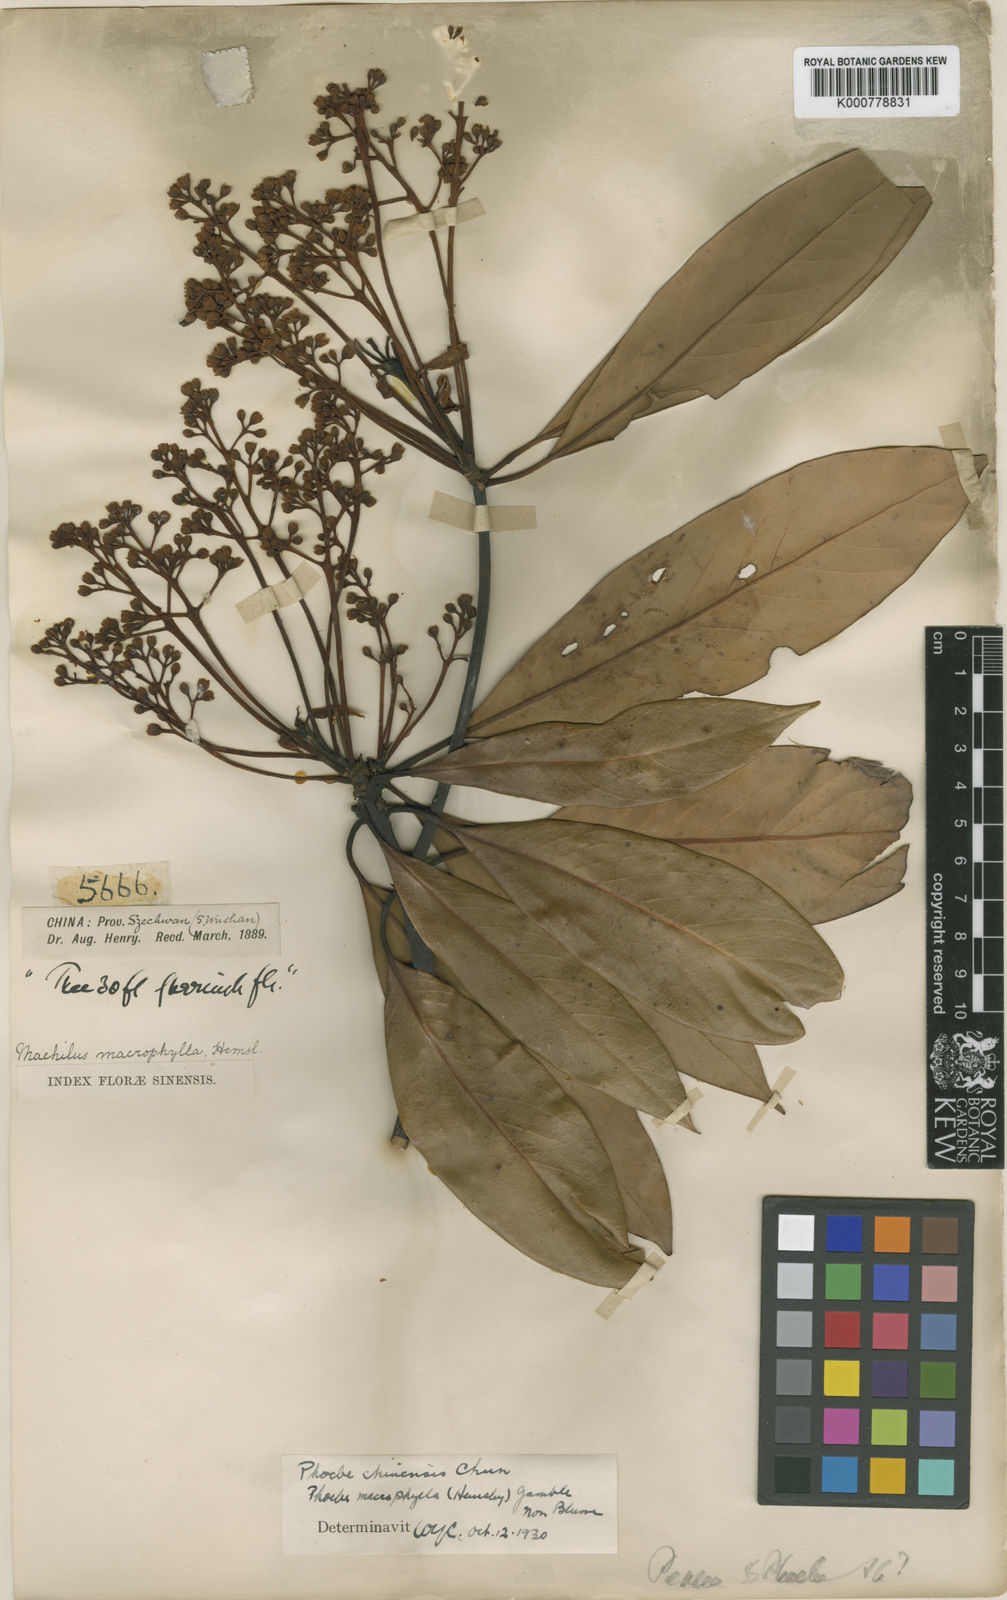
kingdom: Plantae
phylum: Tracheophyta
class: Magnoliopsida
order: Laurales
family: Lauraceae
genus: Machilus
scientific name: Machilus montana
